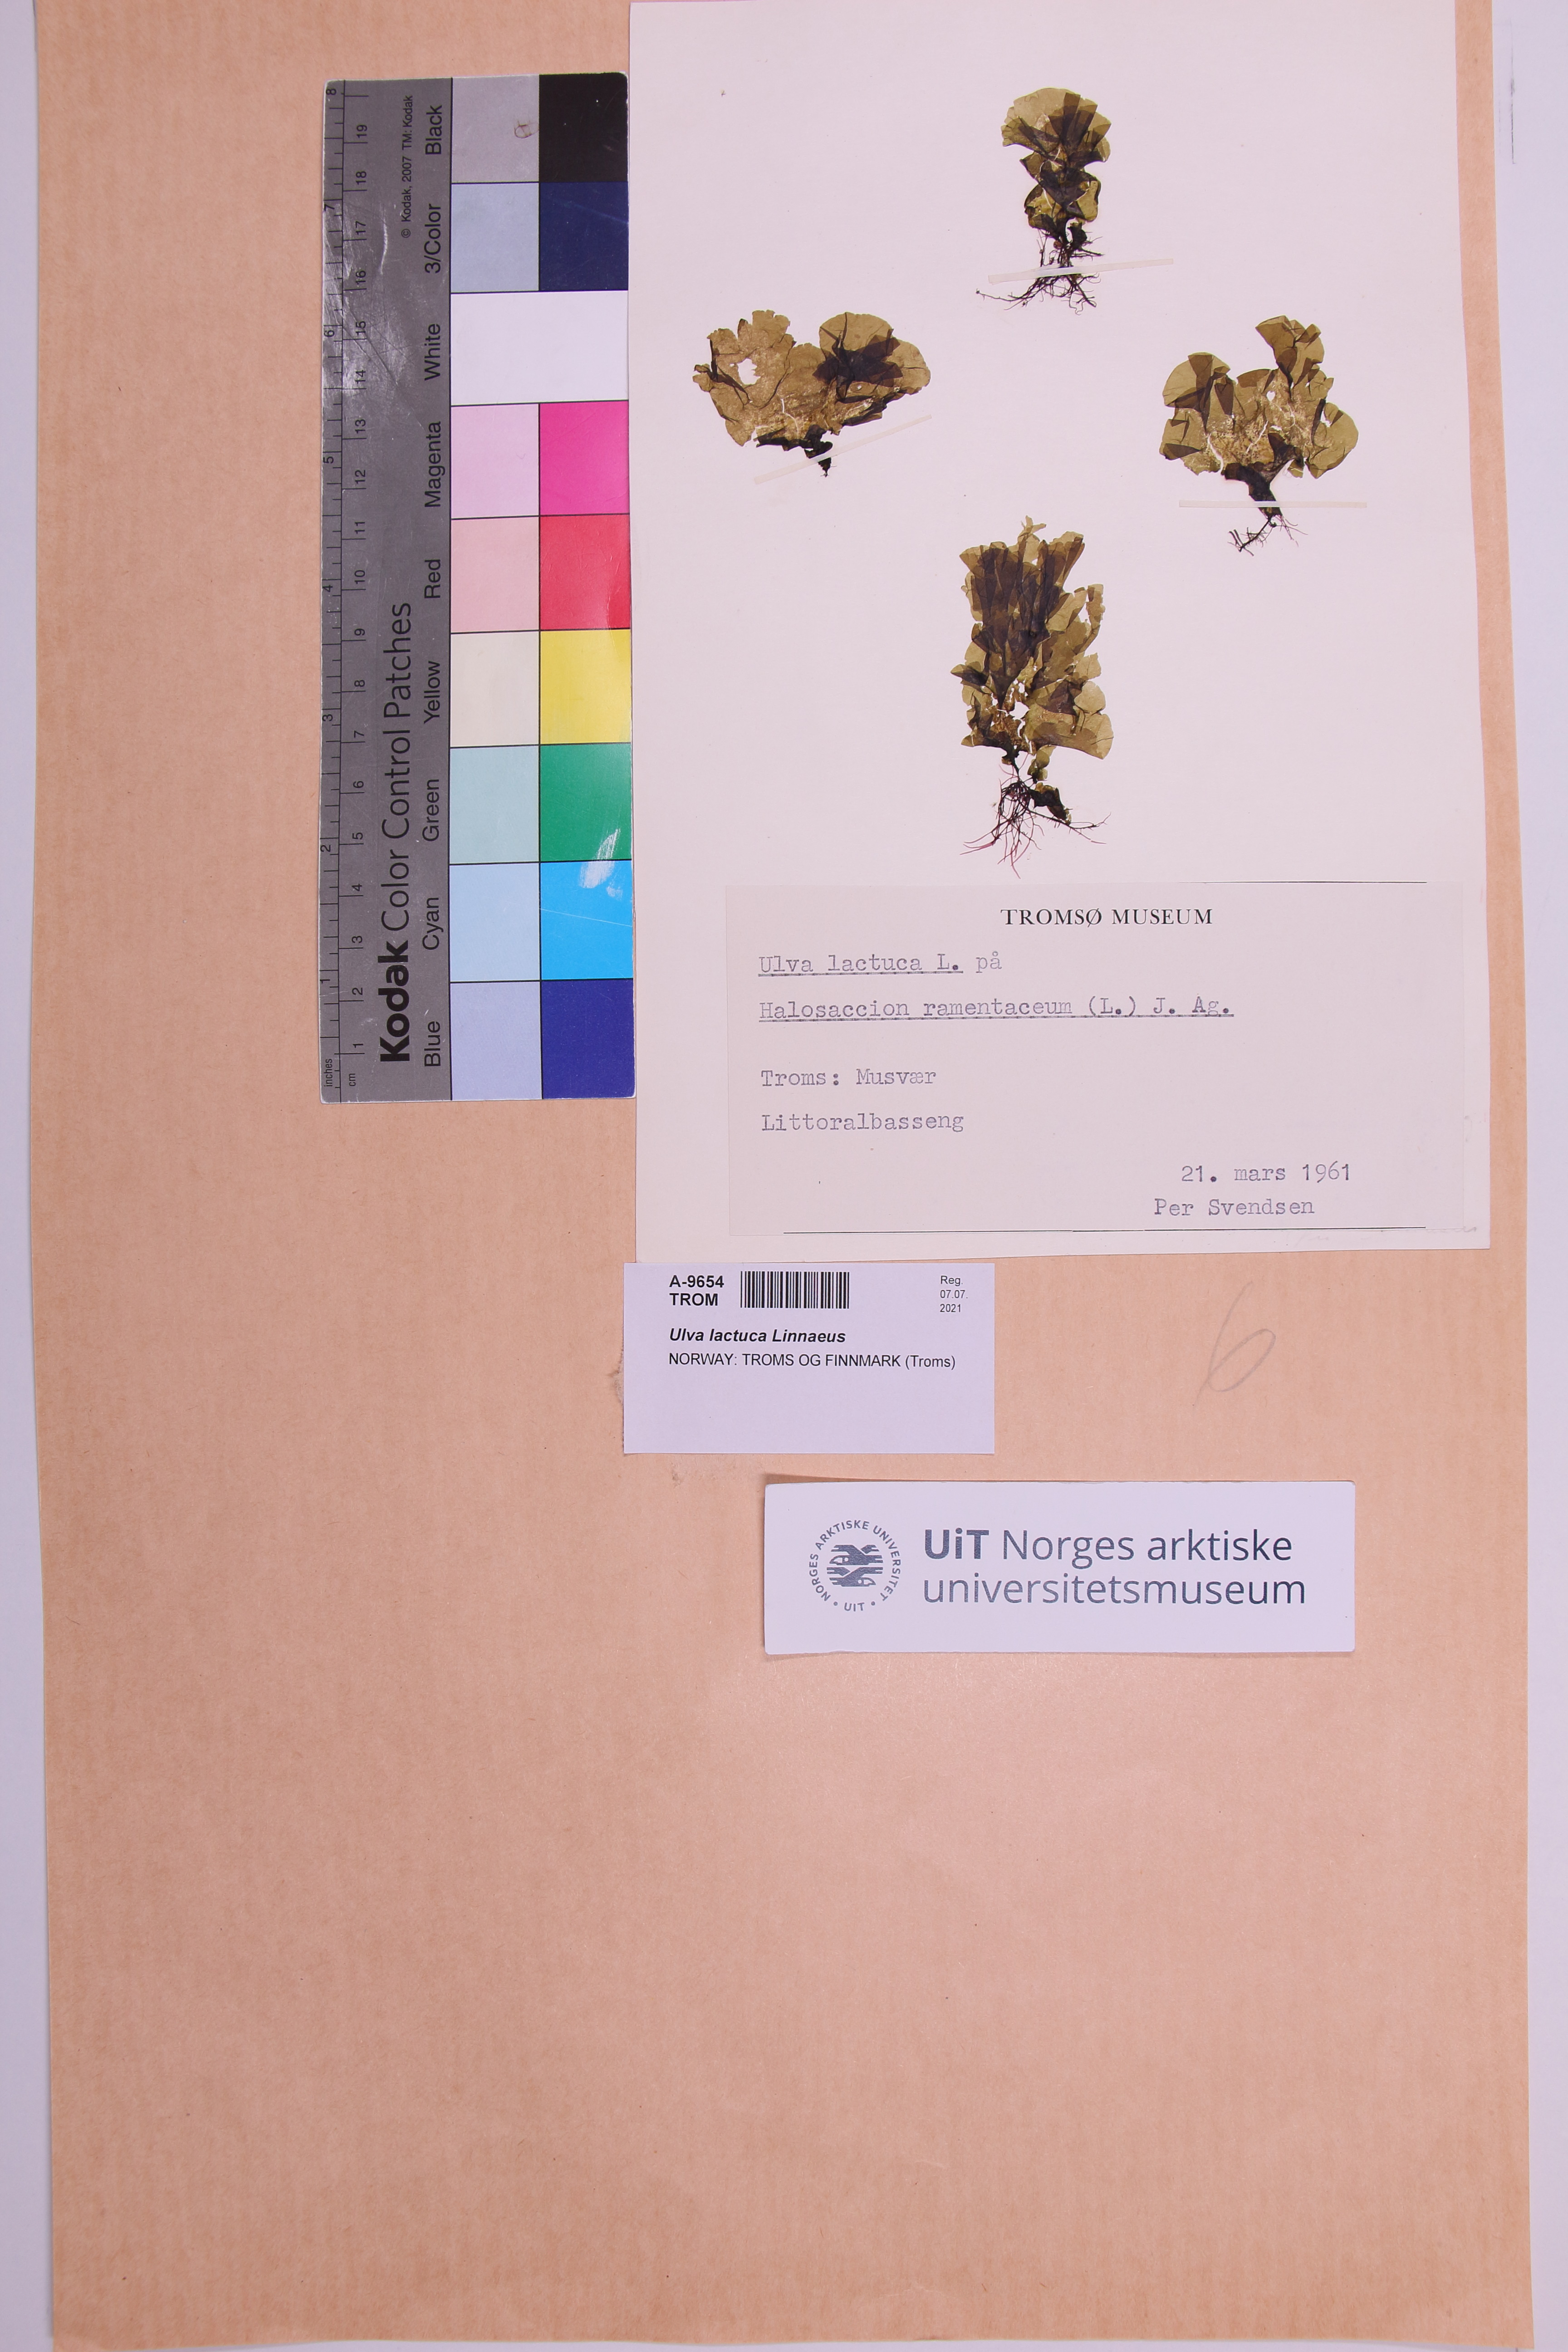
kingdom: Plantae
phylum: Chlorophyta
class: Ulvophyceae
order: Ulvales
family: Ulvaceae
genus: Ulva
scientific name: Ulva lactuca
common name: Sea lettuce
